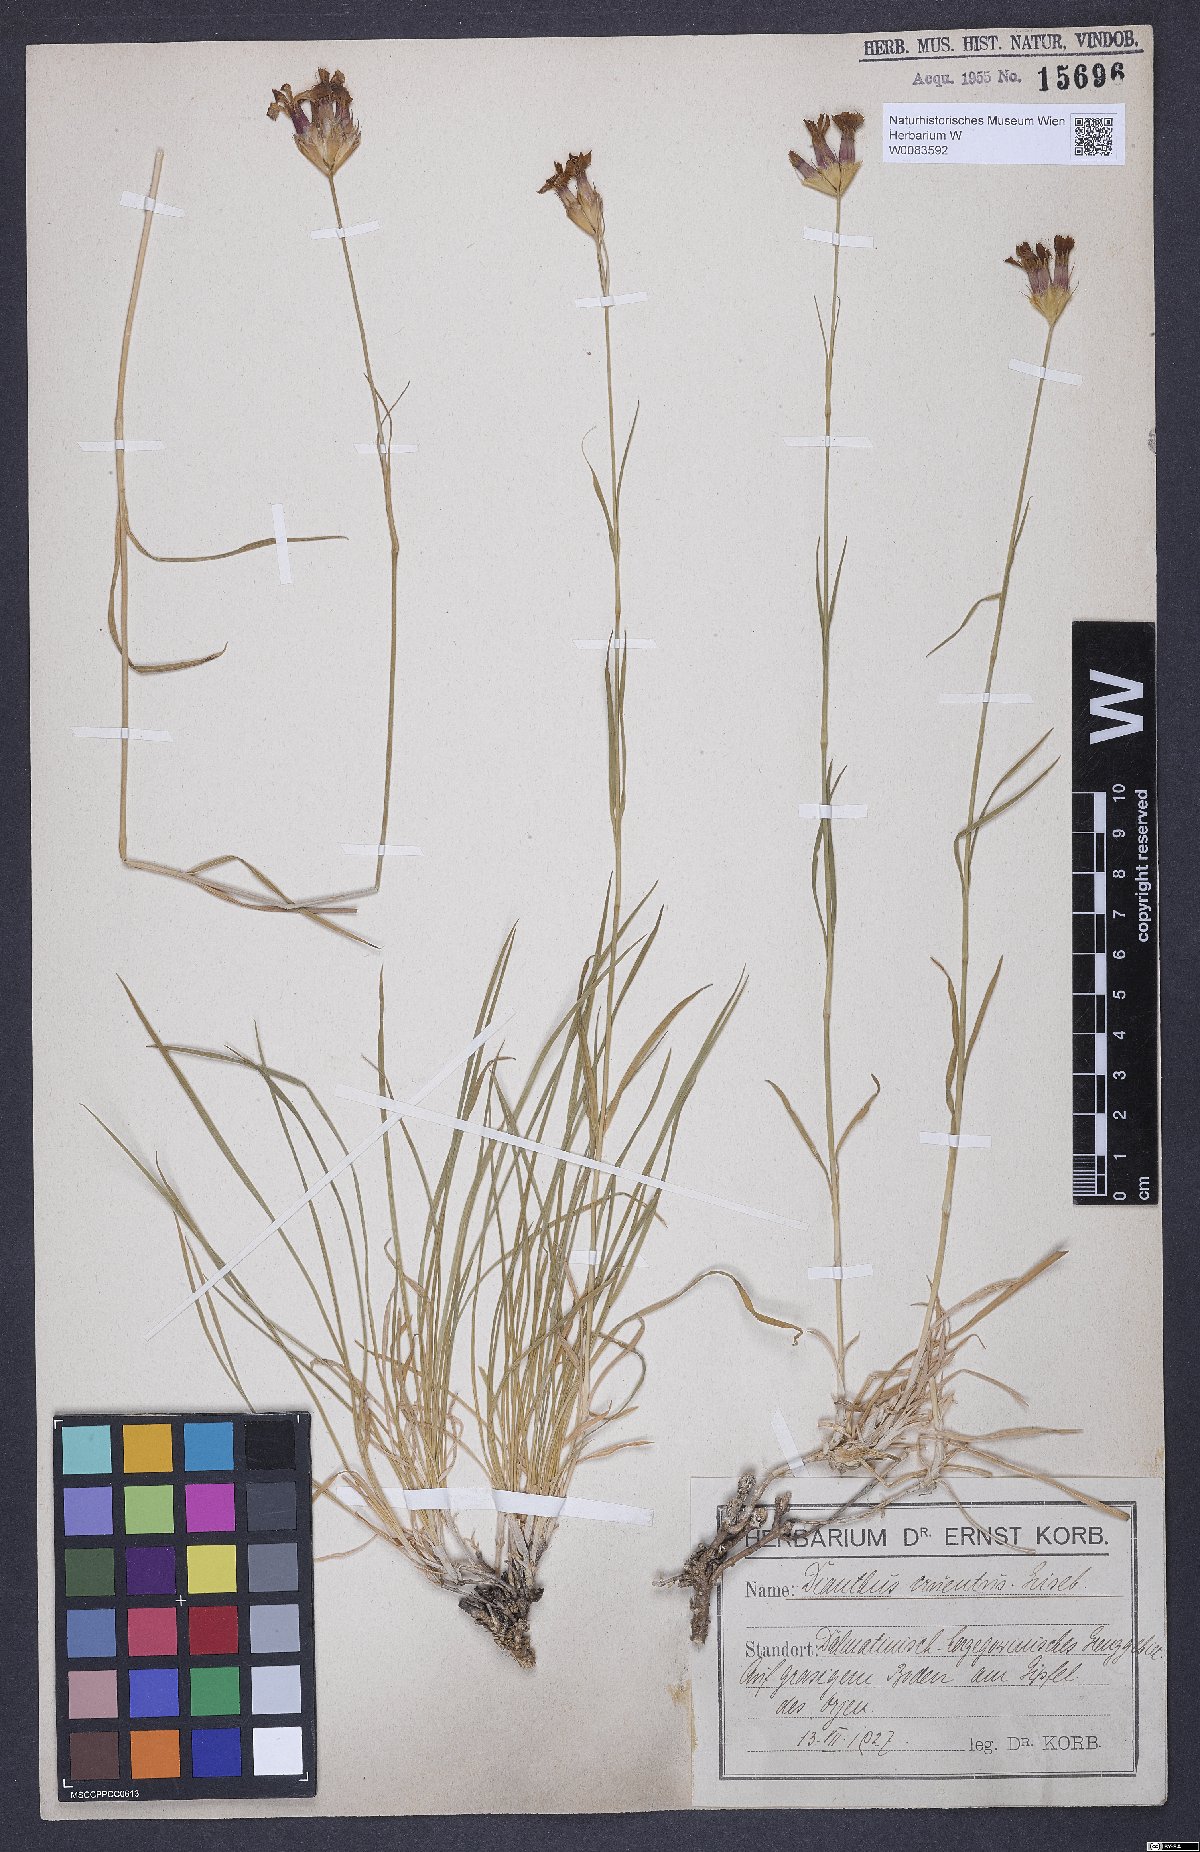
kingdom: Plantae
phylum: Tracheophyta
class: Magnoliopsida
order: Caryophyllales
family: Caryophyllaceae
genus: Dianthus
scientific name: Dianthus cruentus
